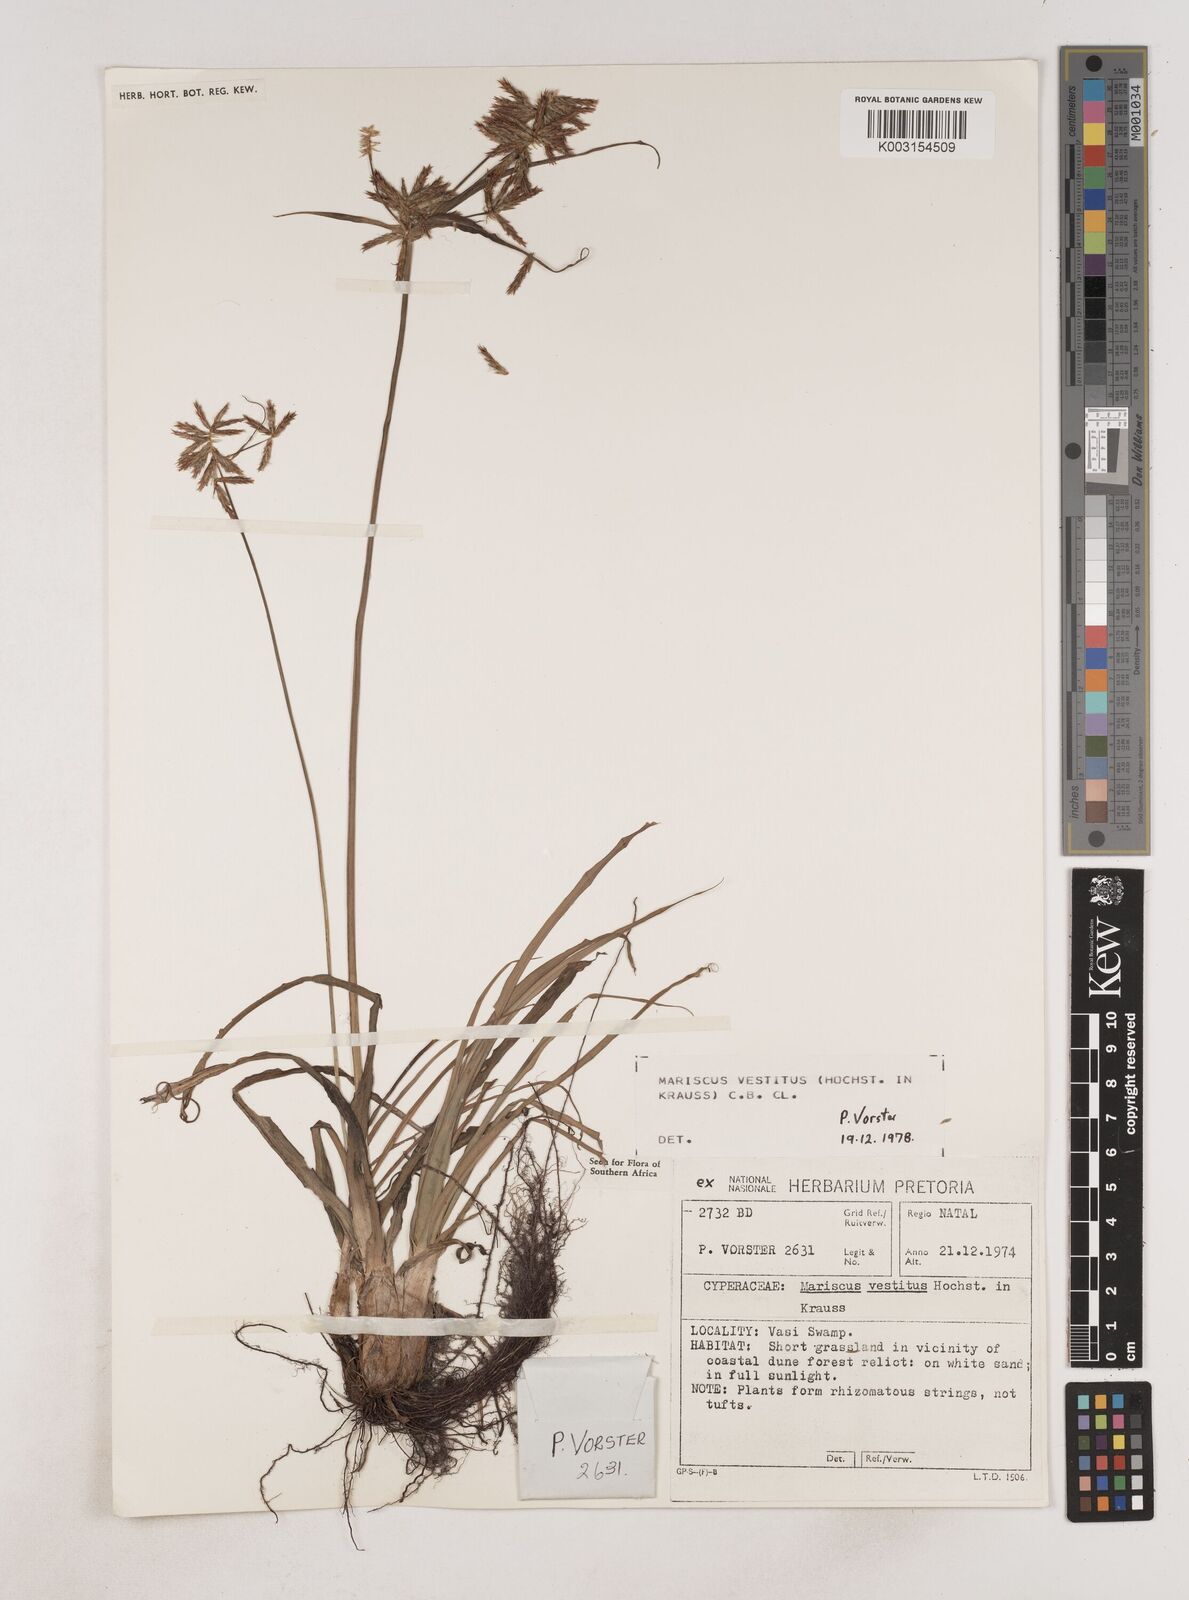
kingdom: Plantae
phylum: Tracheophyta
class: Liliopsida
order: Poales
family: Cyperaceae
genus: Cyperus
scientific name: Cyperus vestitus
